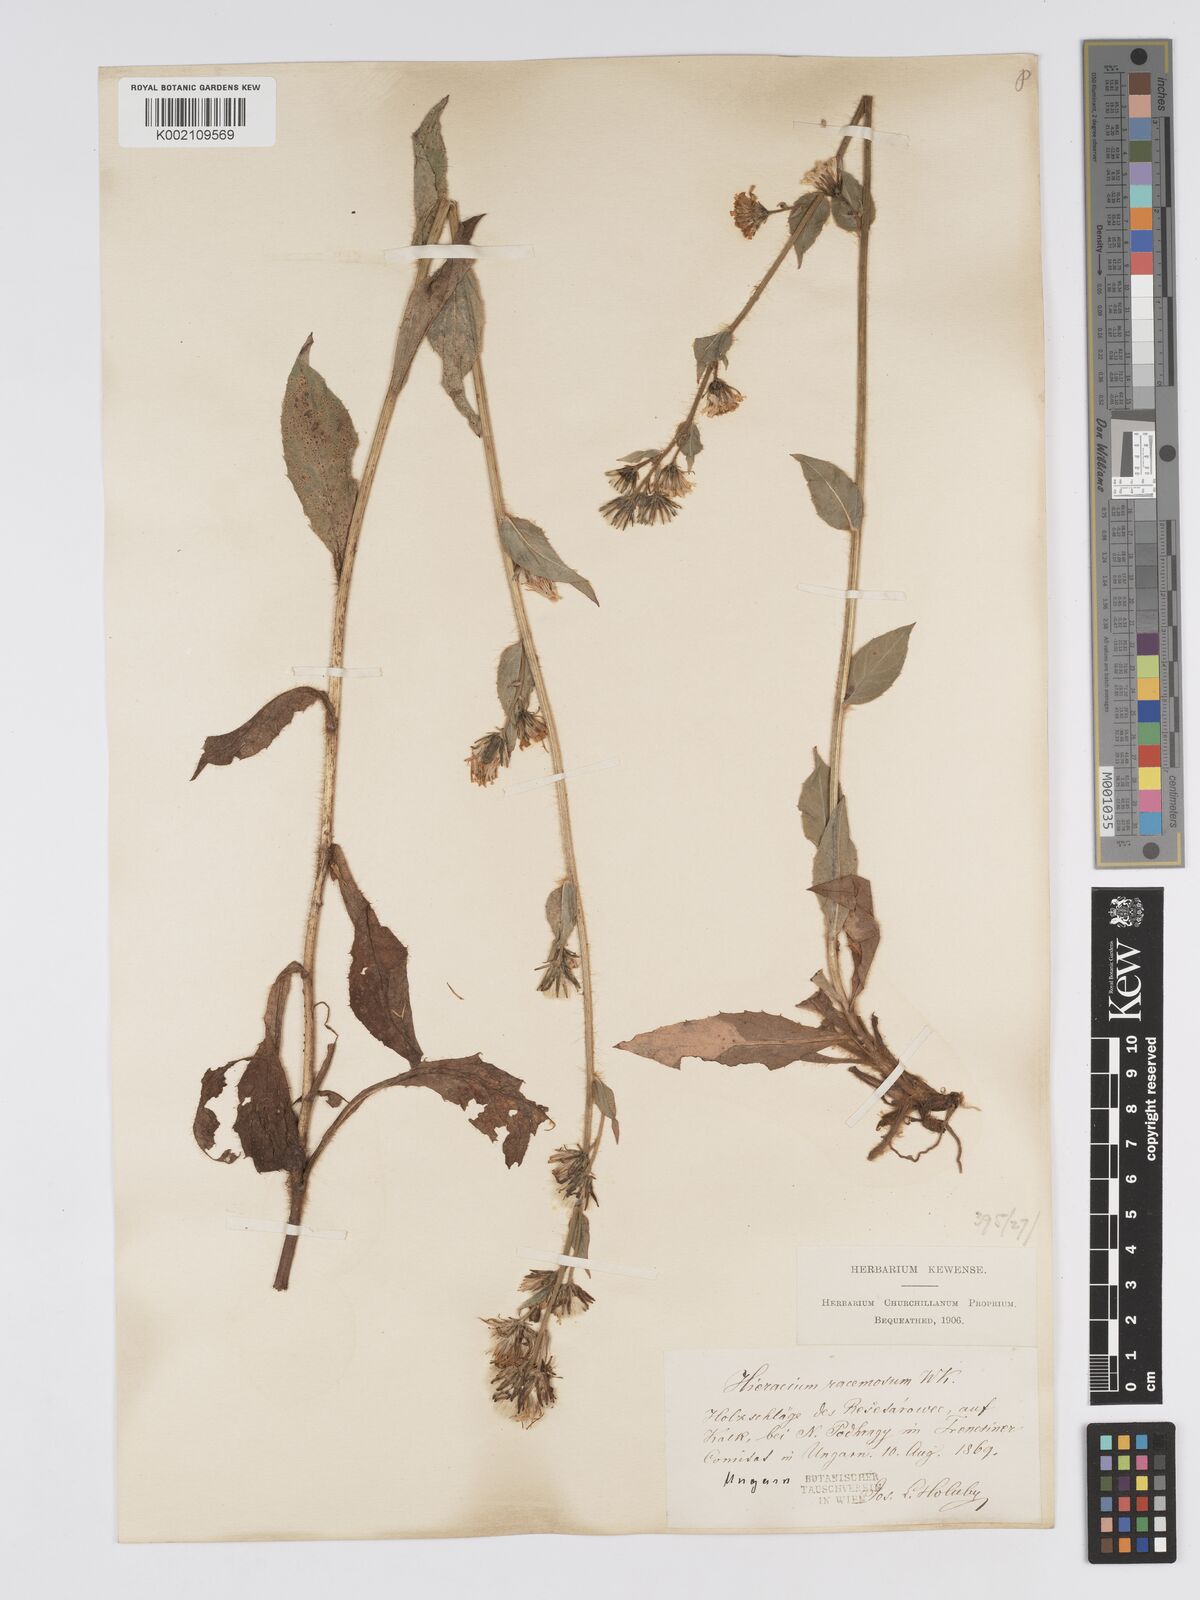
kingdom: Plantae
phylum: Tracheophyta
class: Magnoliopsida
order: Asterales
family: Asteraceae
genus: Hieracium
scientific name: Hieracium racemosum
